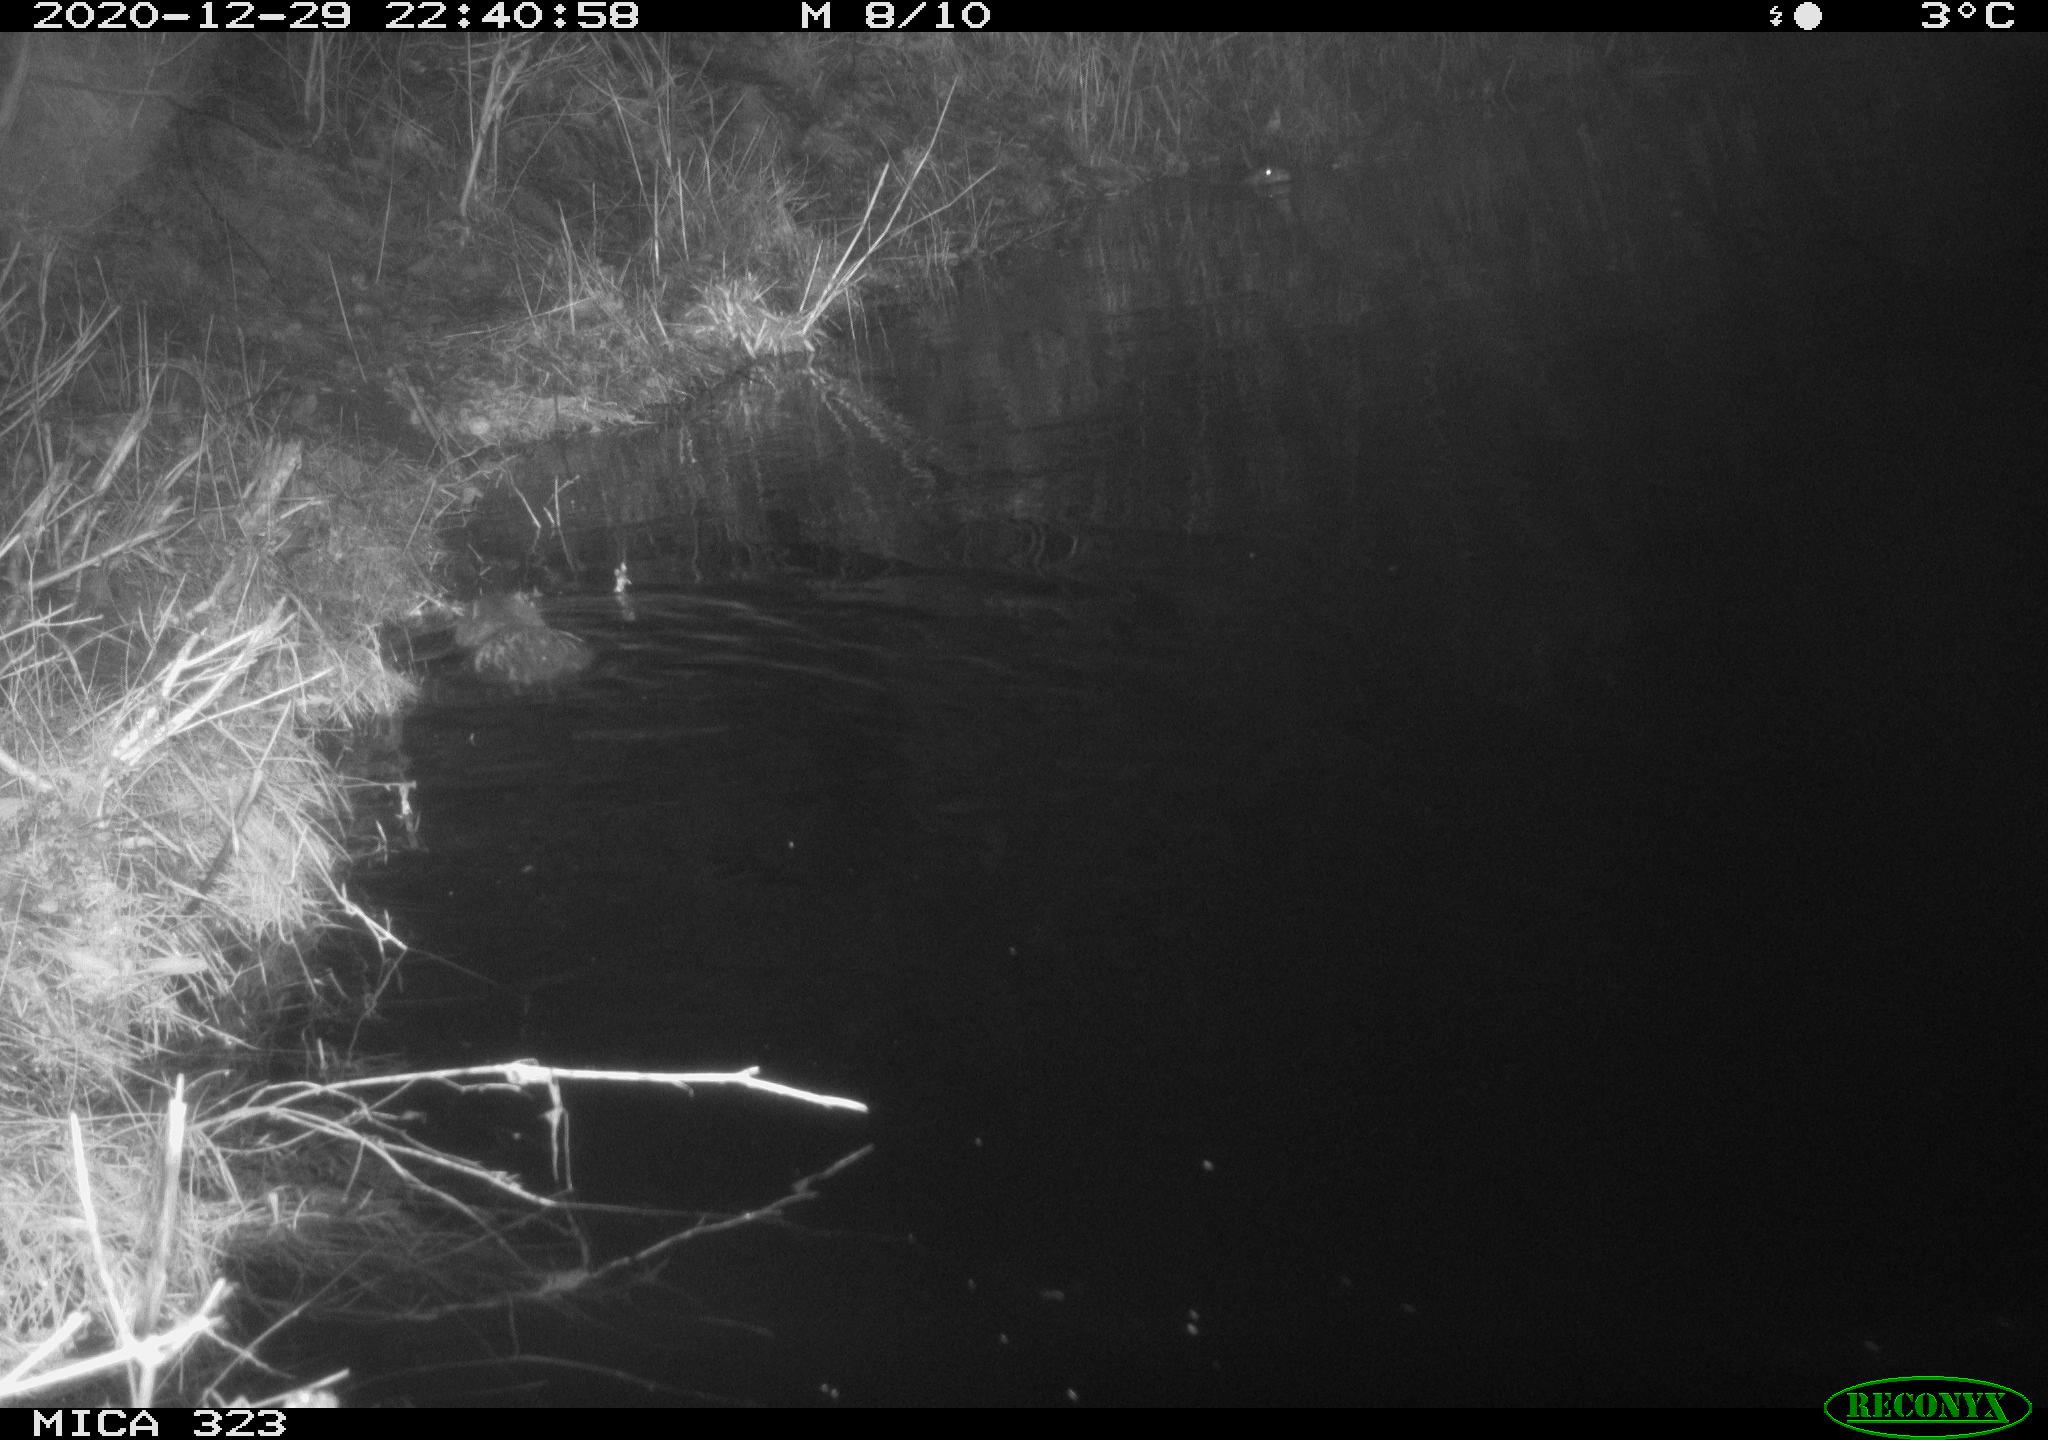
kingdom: Animalia
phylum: Chordata
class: Mammalia
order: Rodentia
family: Myocastoridae
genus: Myocastor
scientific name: Myocastor coypus
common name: Coypu
